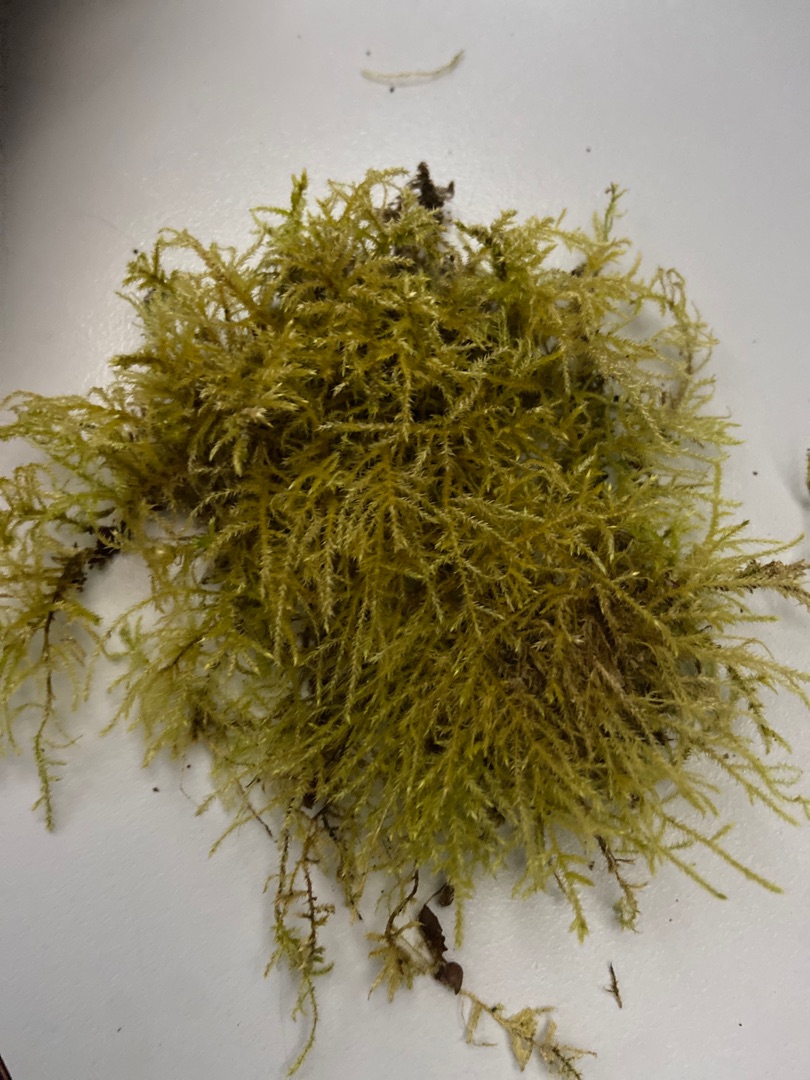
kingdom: Plantae
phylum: Bryophyta
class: Bryopsida
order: Hypnales
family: Brachytheciaceae
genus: Kindbergia
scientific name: Kindbergia praelonga
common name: Forskelligbladet vortetand
